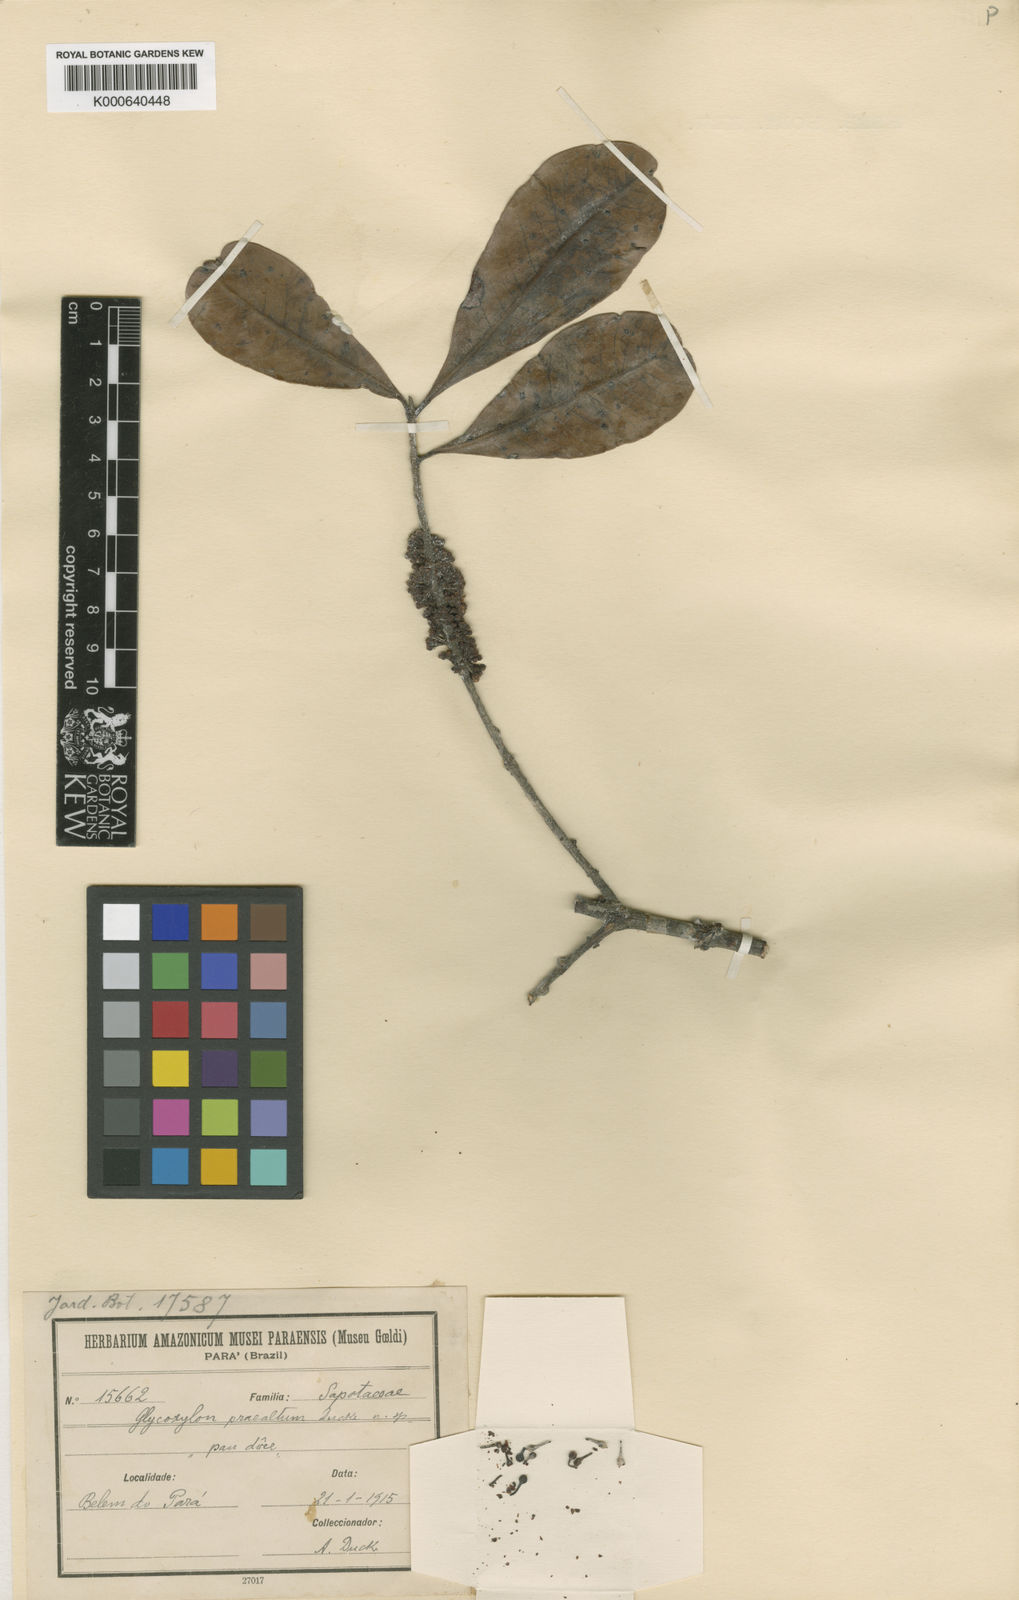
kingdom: Plantae
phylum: Tracheophyta
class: Magnoliopsida
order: Ericales
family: Sapotaceae
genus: Pradosia
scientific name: Pradosia cochlearia
